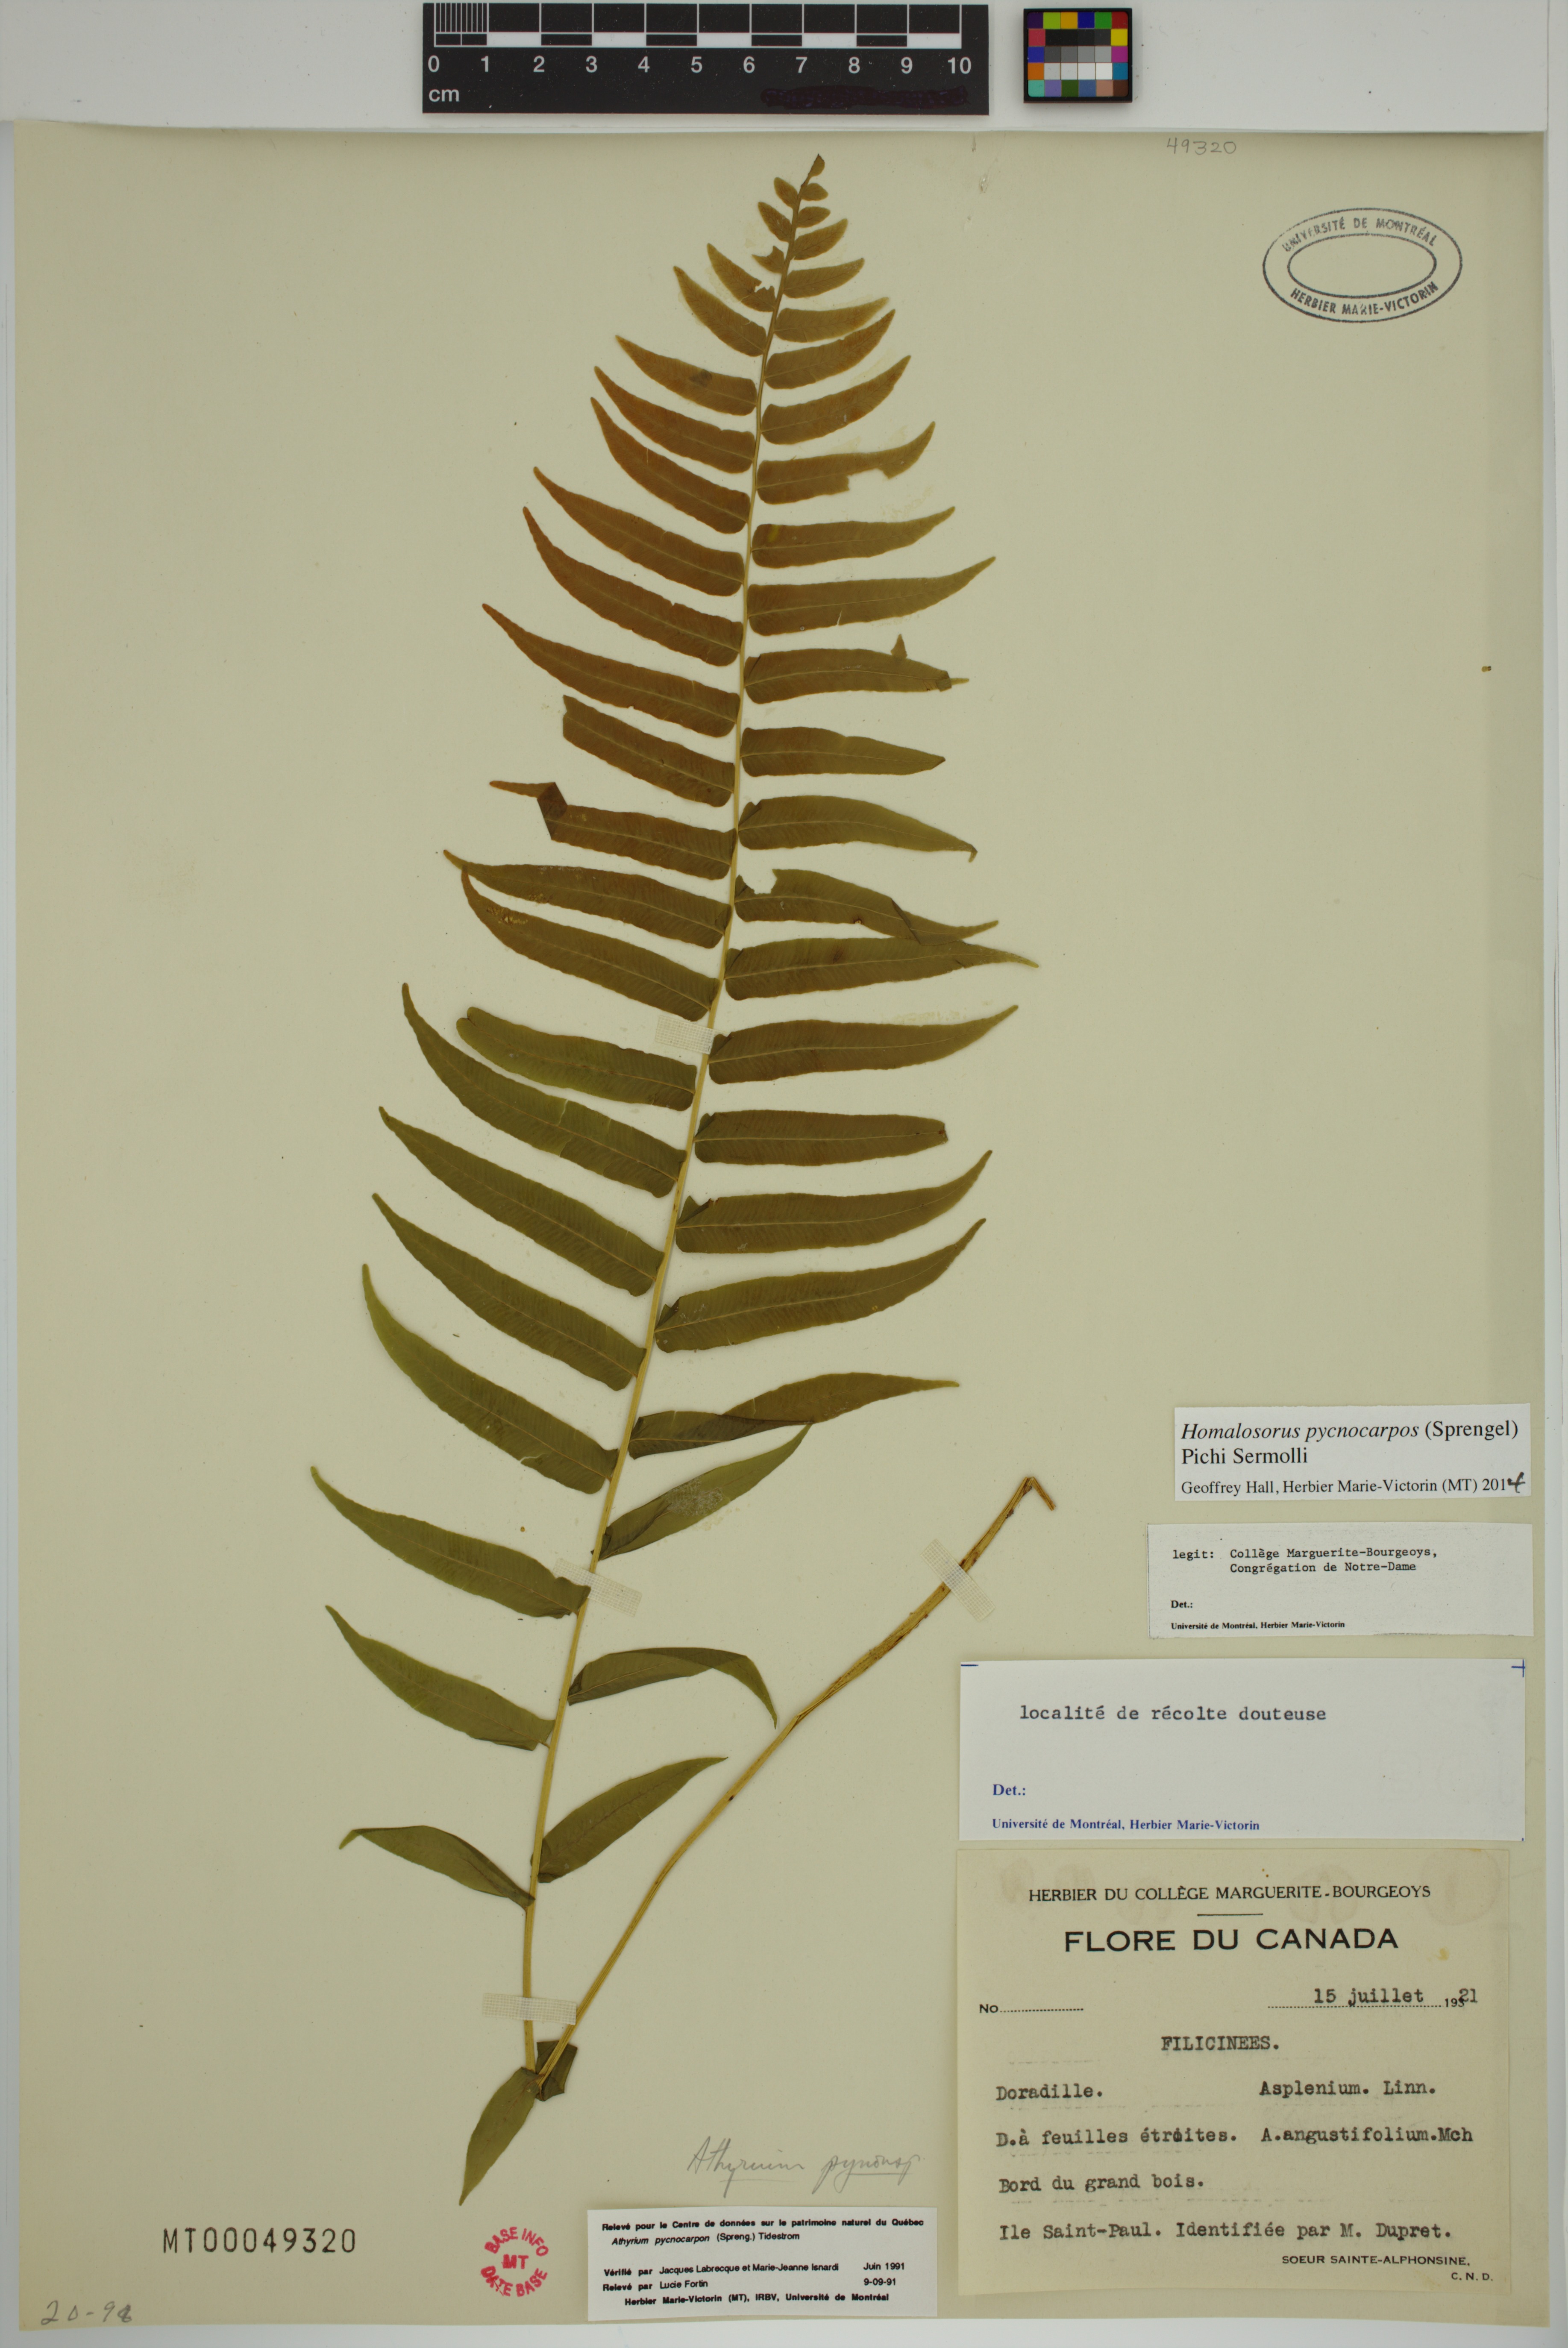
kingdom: Plantae
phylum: Tracheophyta
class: Polypodiopsida
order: Polypodiales
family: Diplaziopsidaceae
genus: Homalosorus
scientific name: Homalosorus pycnocarpos
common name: Glade fern
